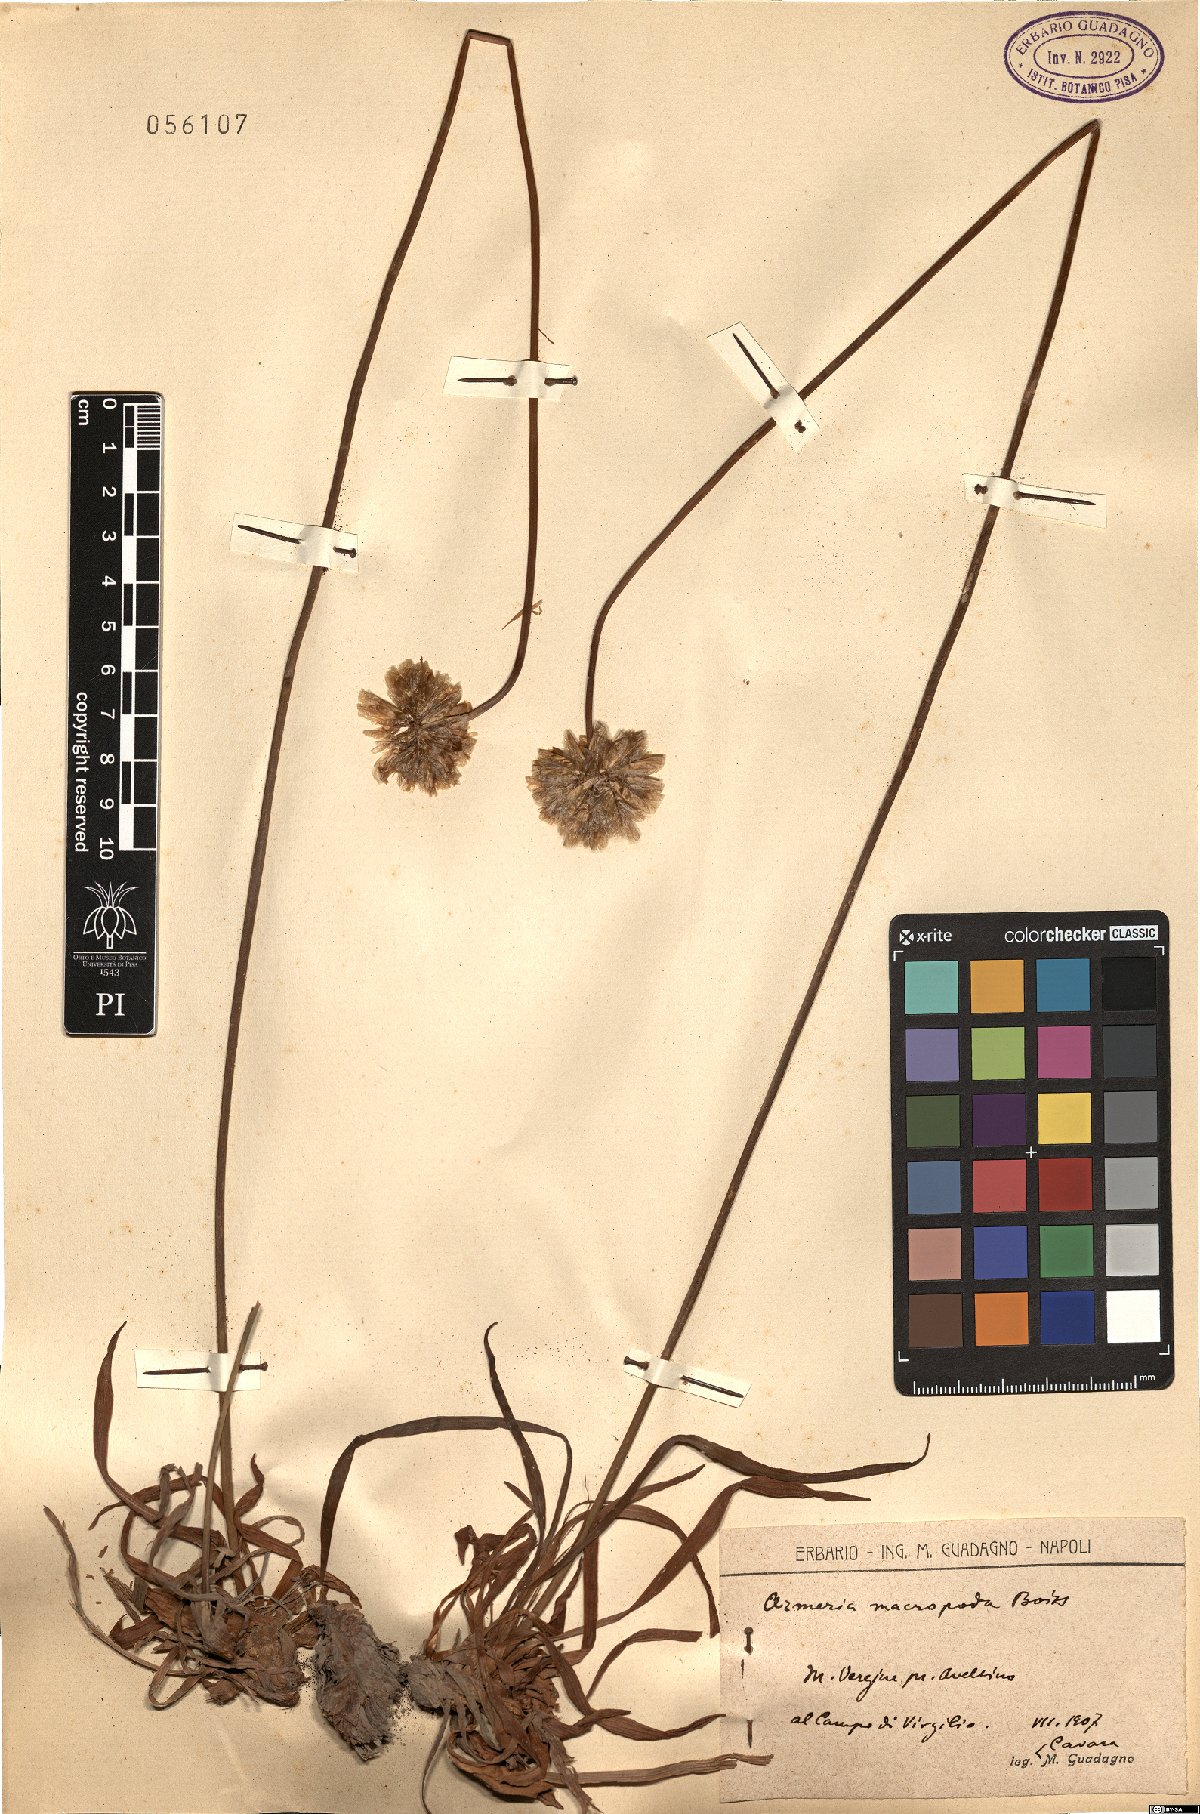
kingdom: Plantae
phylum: Tracheophyta
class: Magnoliopsida
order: Caryophyllales
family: Plumbaginaceae
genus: Armeria
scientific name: Armeria macropoda
